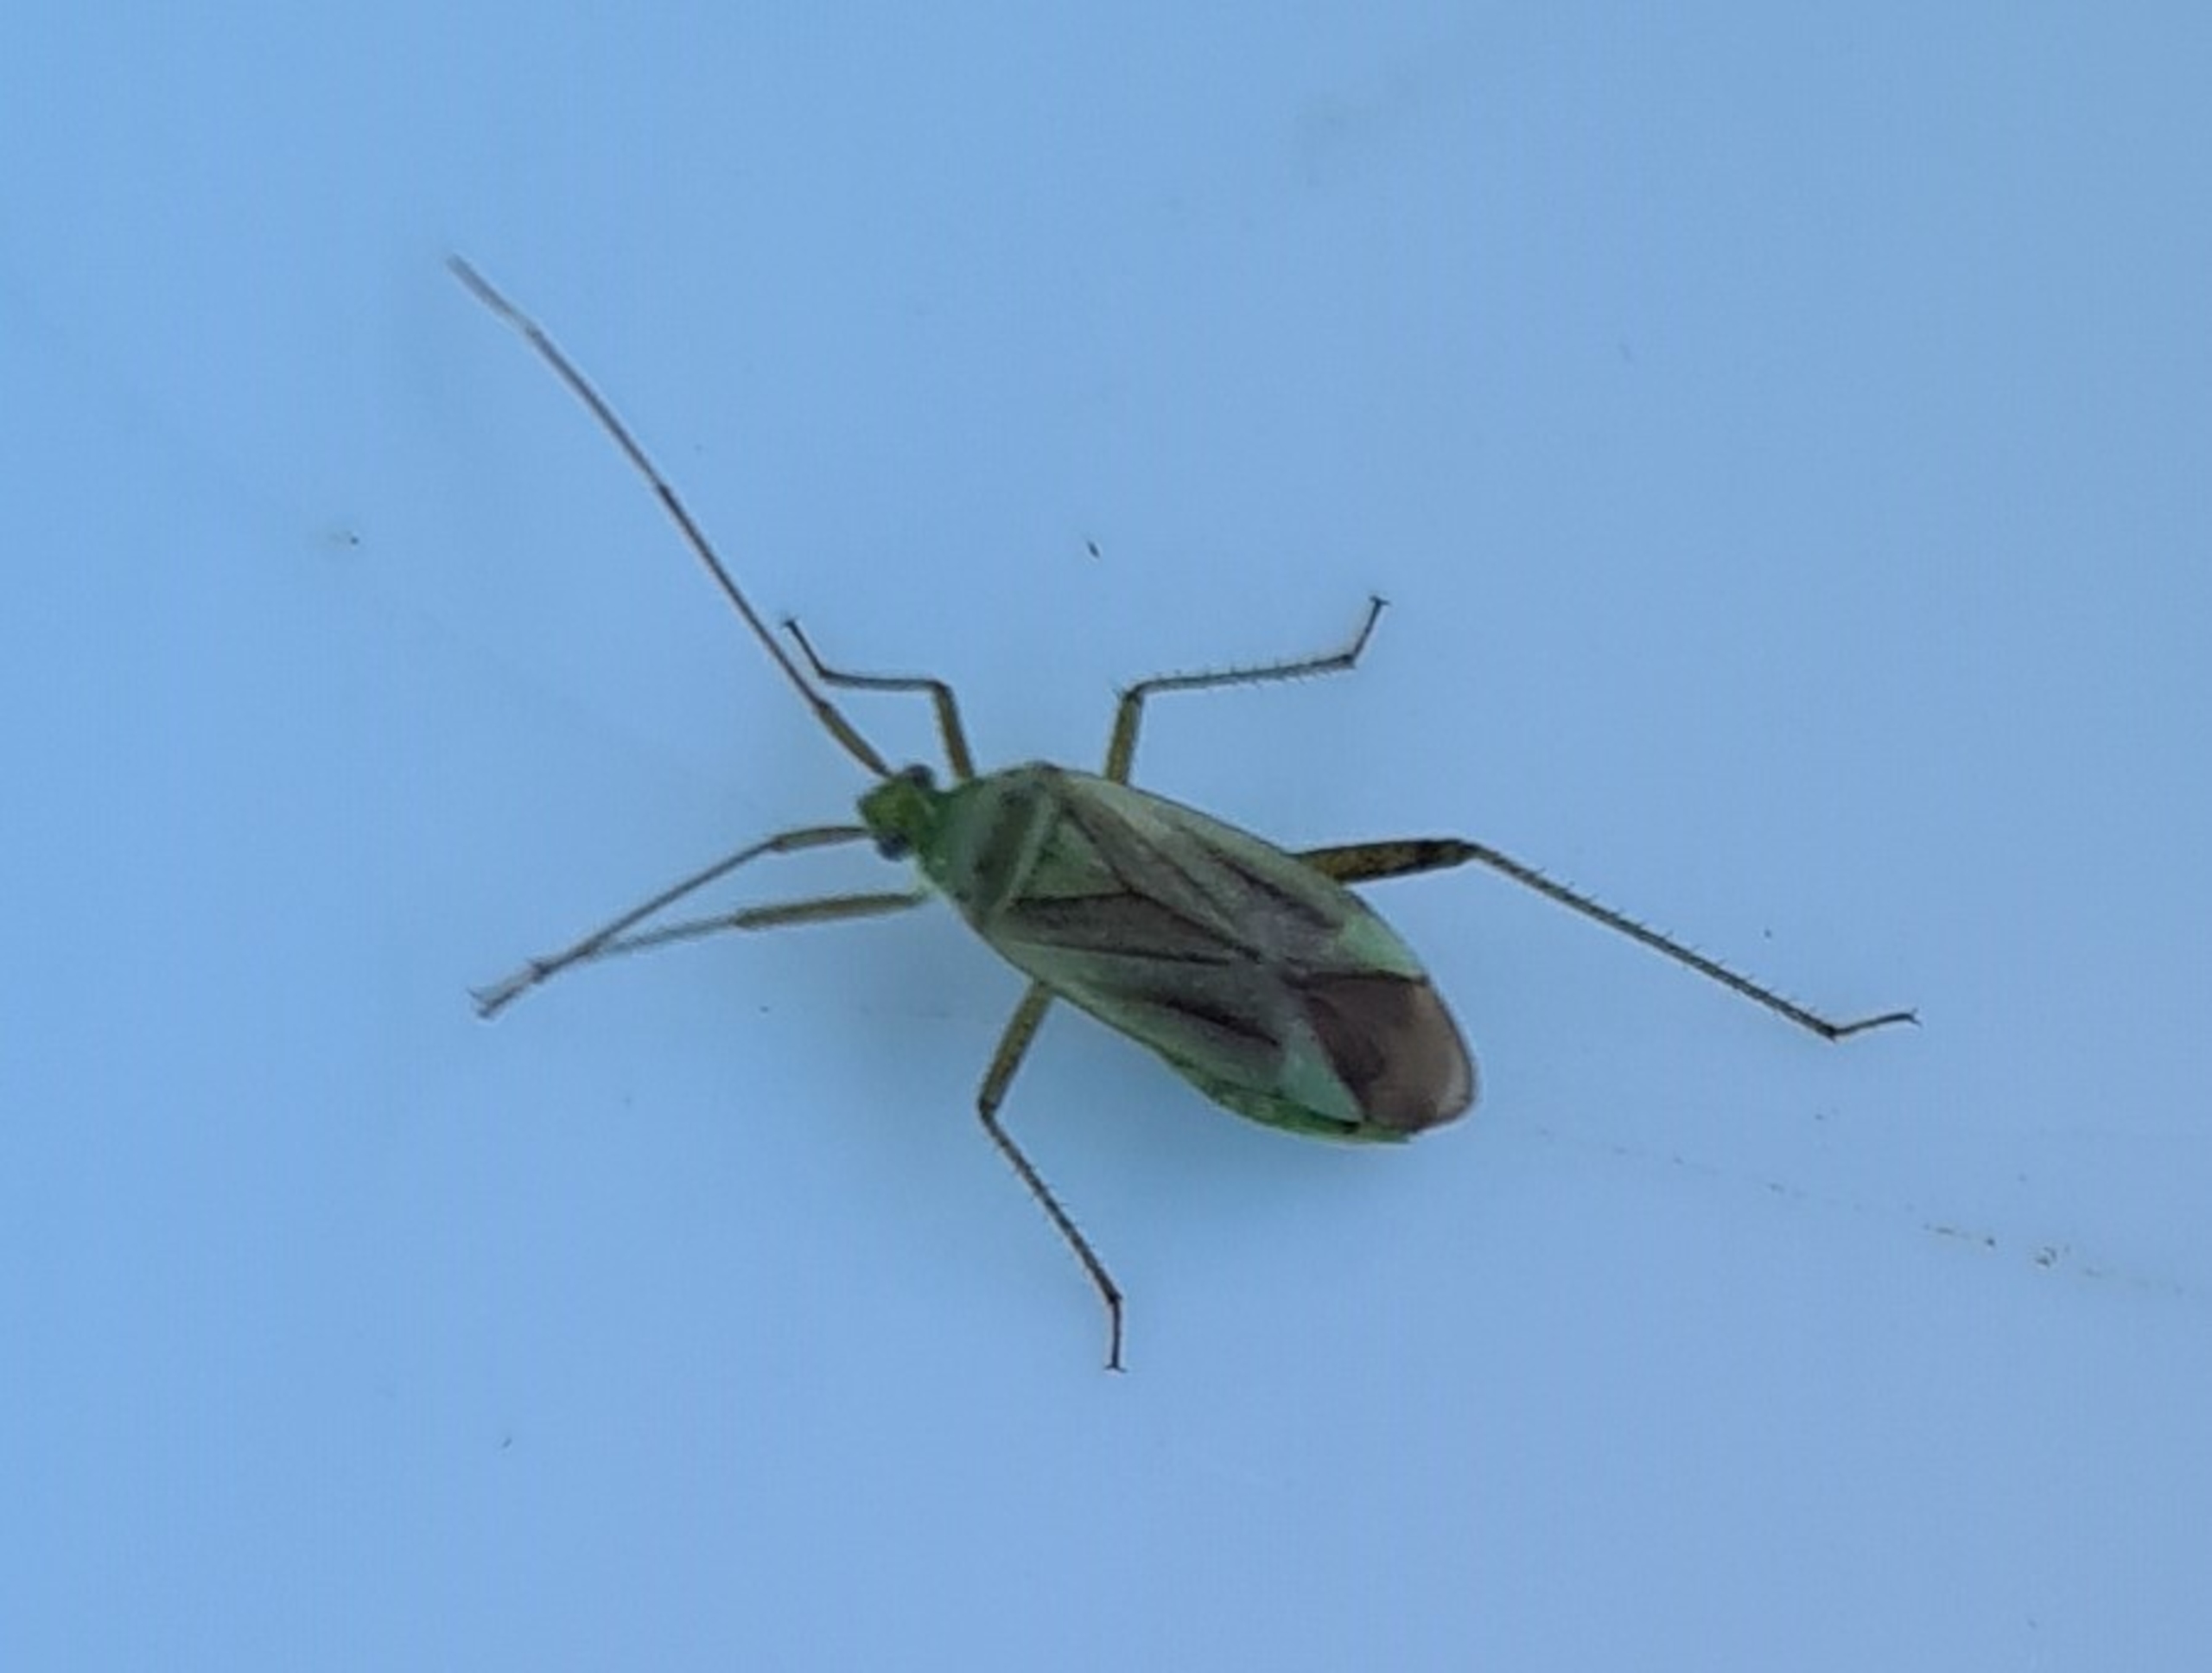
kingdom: Animalia
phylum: Arthropoda
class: Insecta
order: Hemiptera
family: Miridae
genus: Adelphocoris
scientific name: Adelphocoris quadripunctatus
